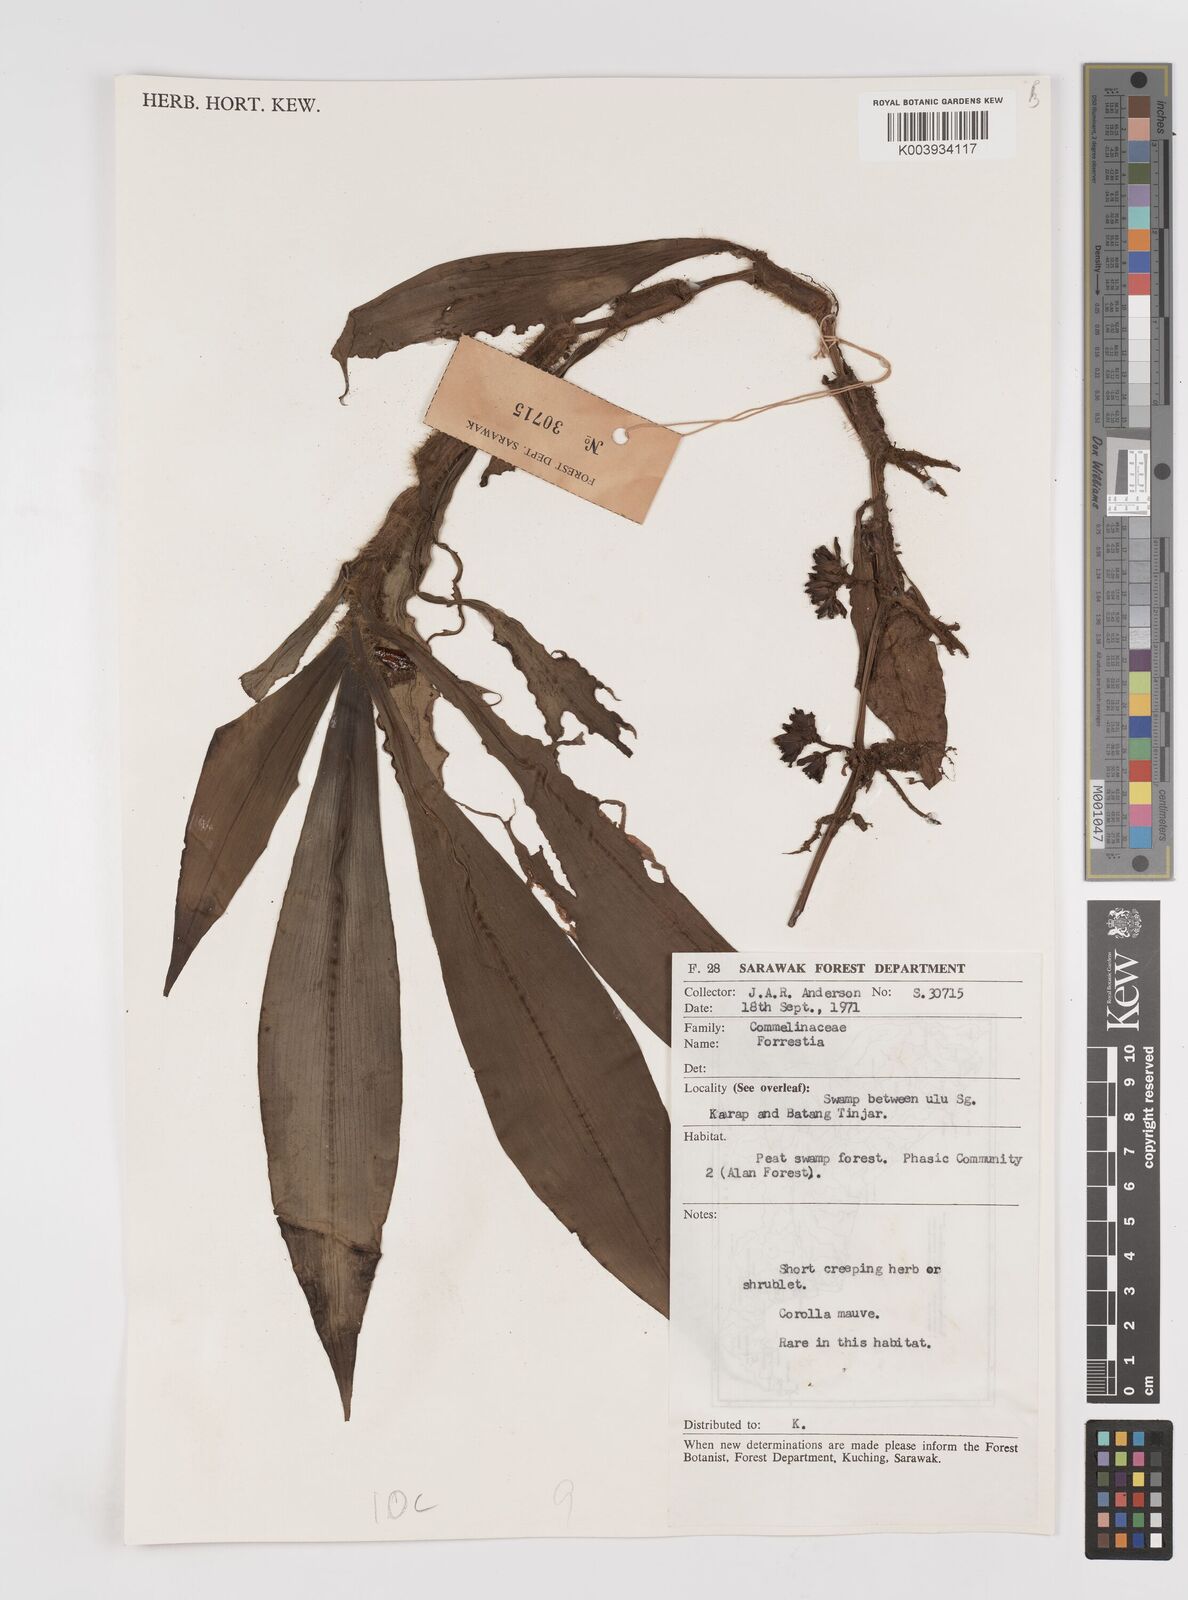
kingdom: Plantae
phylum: Tracheophyta
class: Liliopsida
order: Commelinales
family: Commelinaceae
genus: Amischotolype
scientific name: Amischotolype
